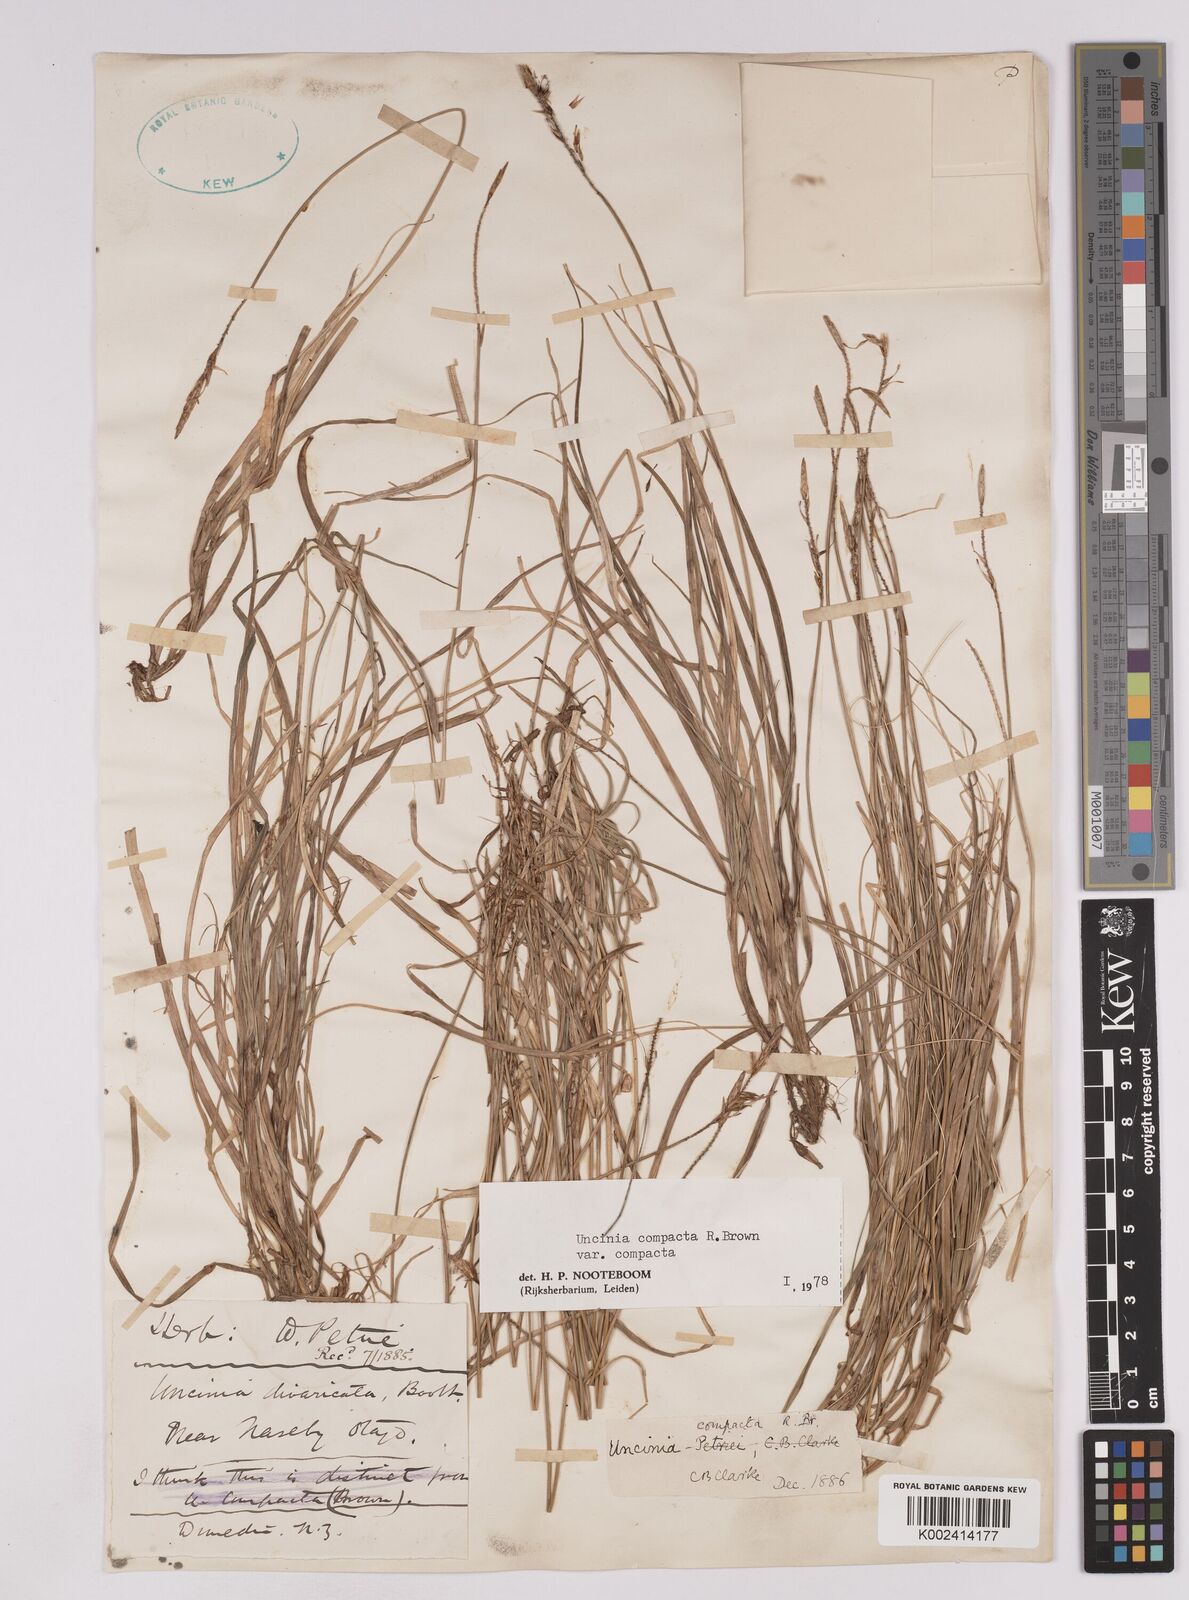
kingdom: Plantae
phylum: Tracheophyta
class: Liliopsida
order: Poales
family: Cyperaceae
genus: Carex
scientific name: Carex austrocompacta
